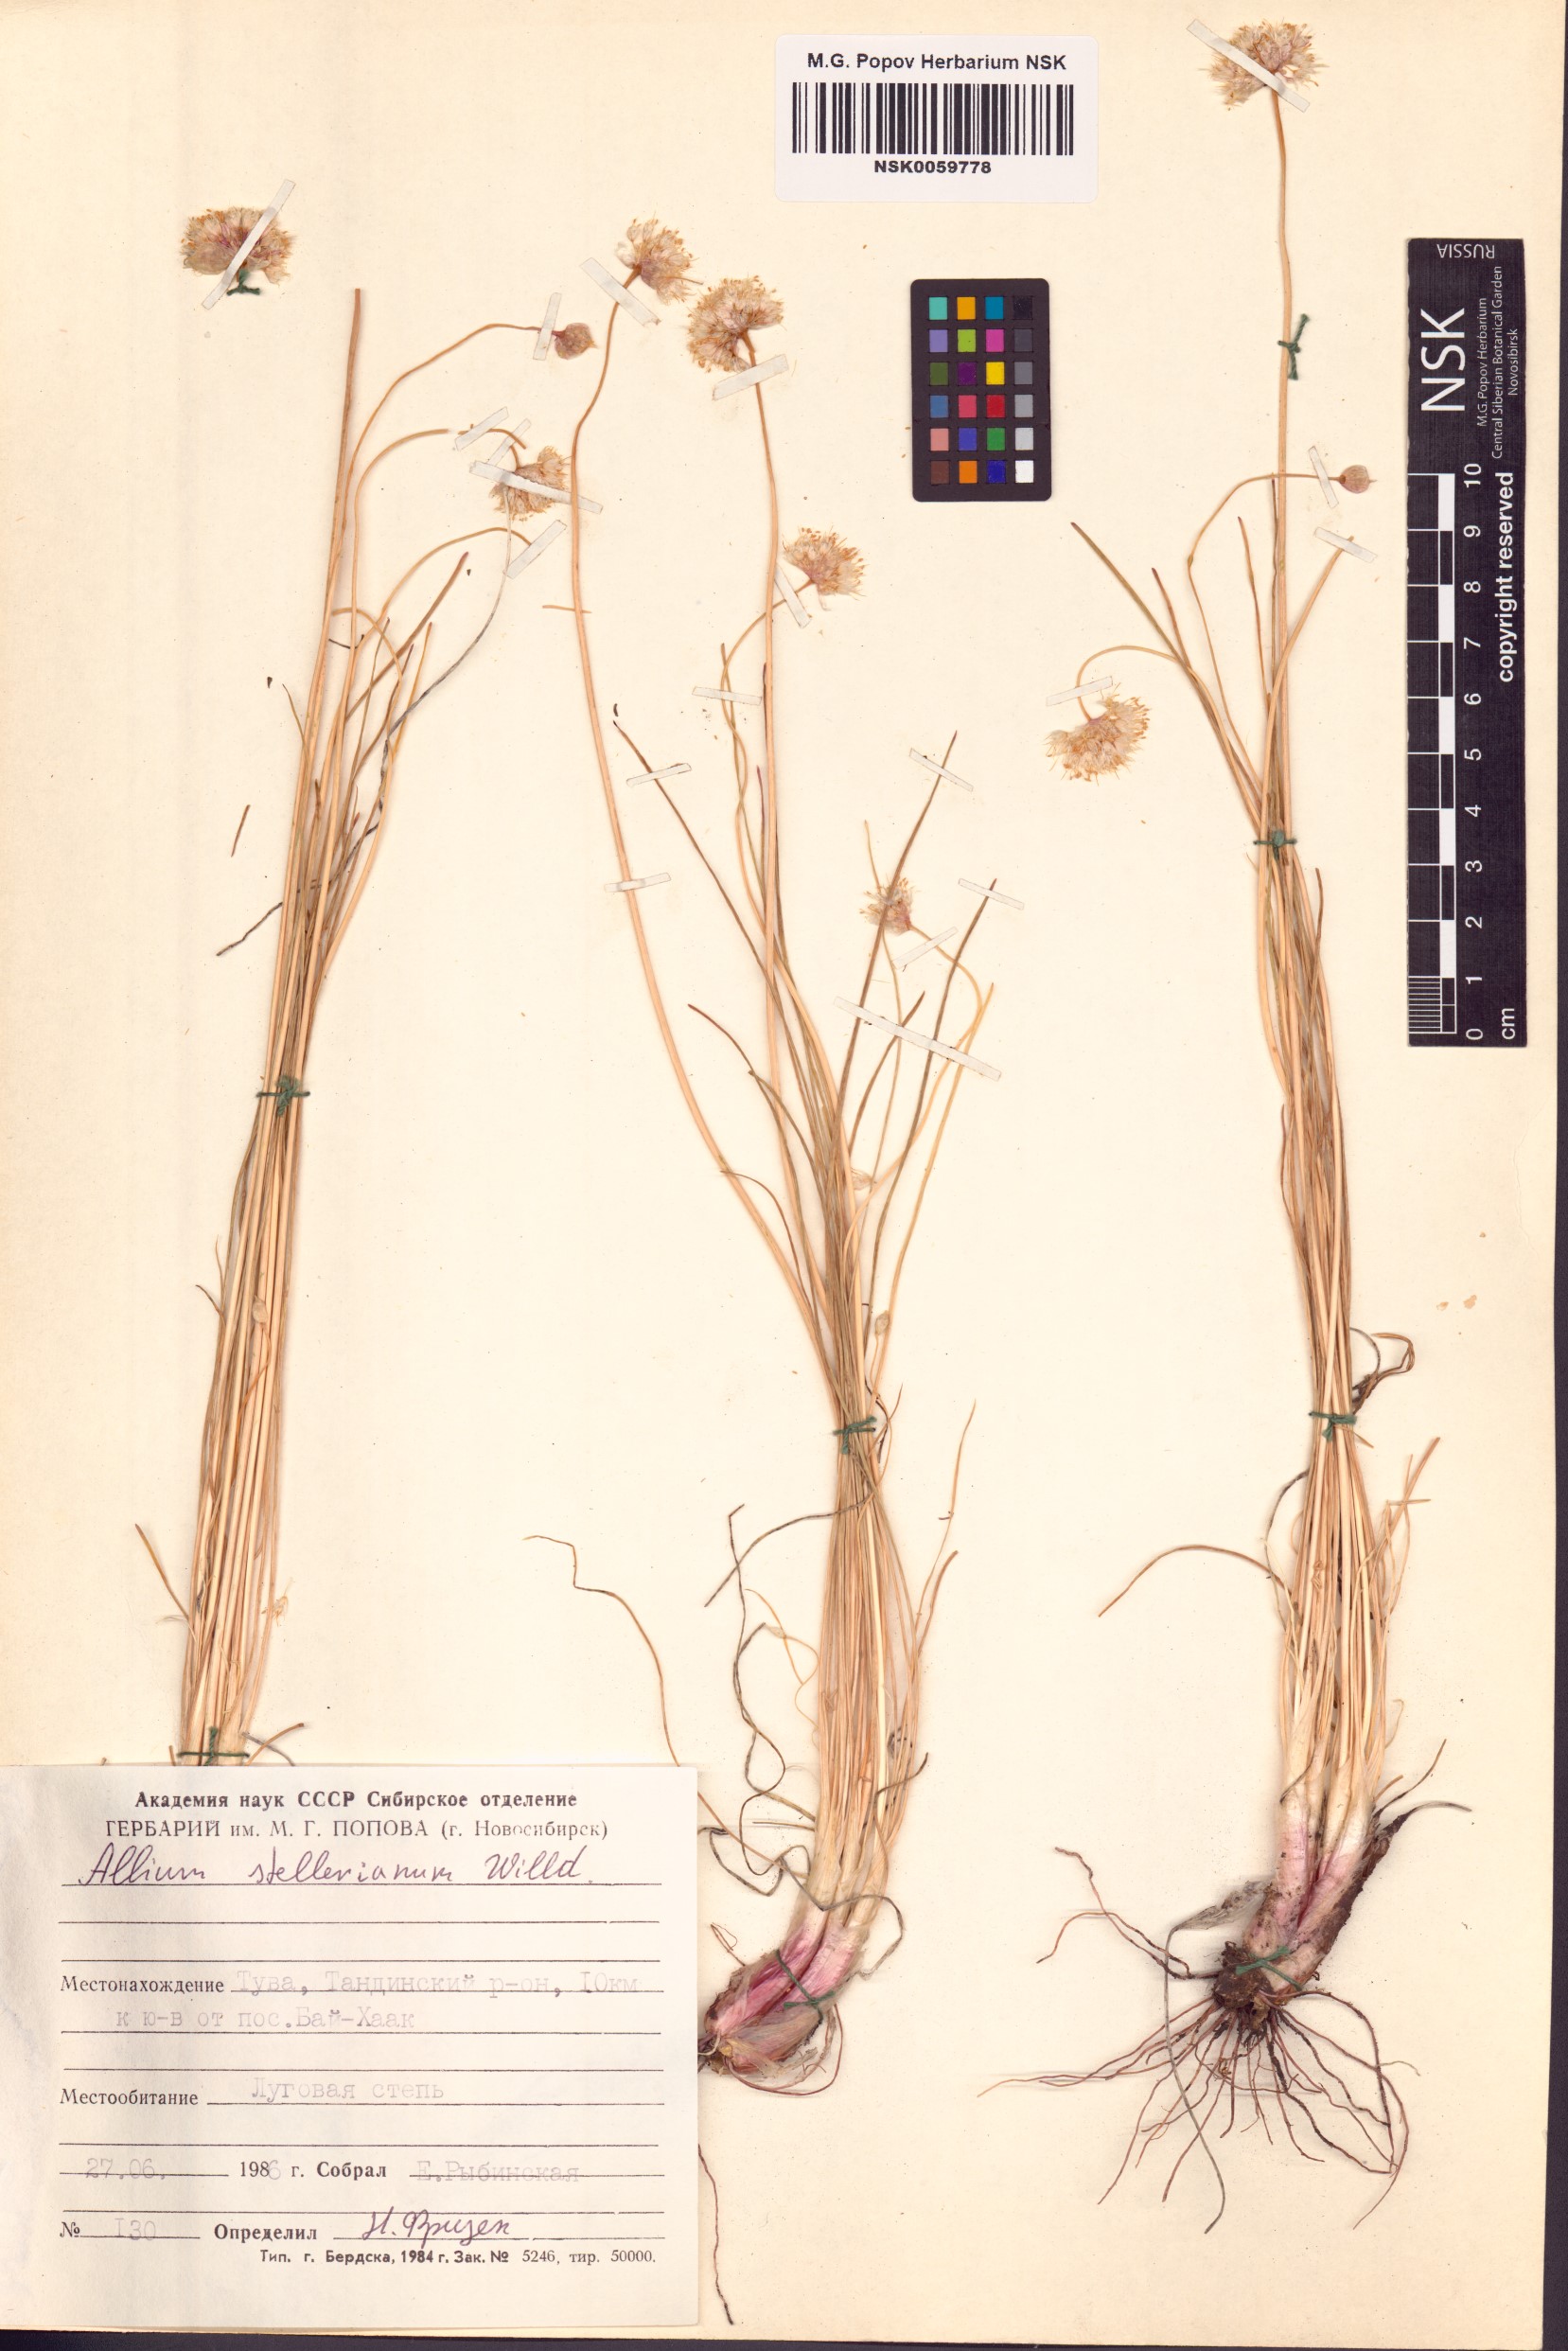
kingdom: Plantae
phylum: Tracheophyta
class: Liliopsida
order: Asparagales
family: Amaryllidaceae
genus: Allium
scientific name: Allium stellerianum
